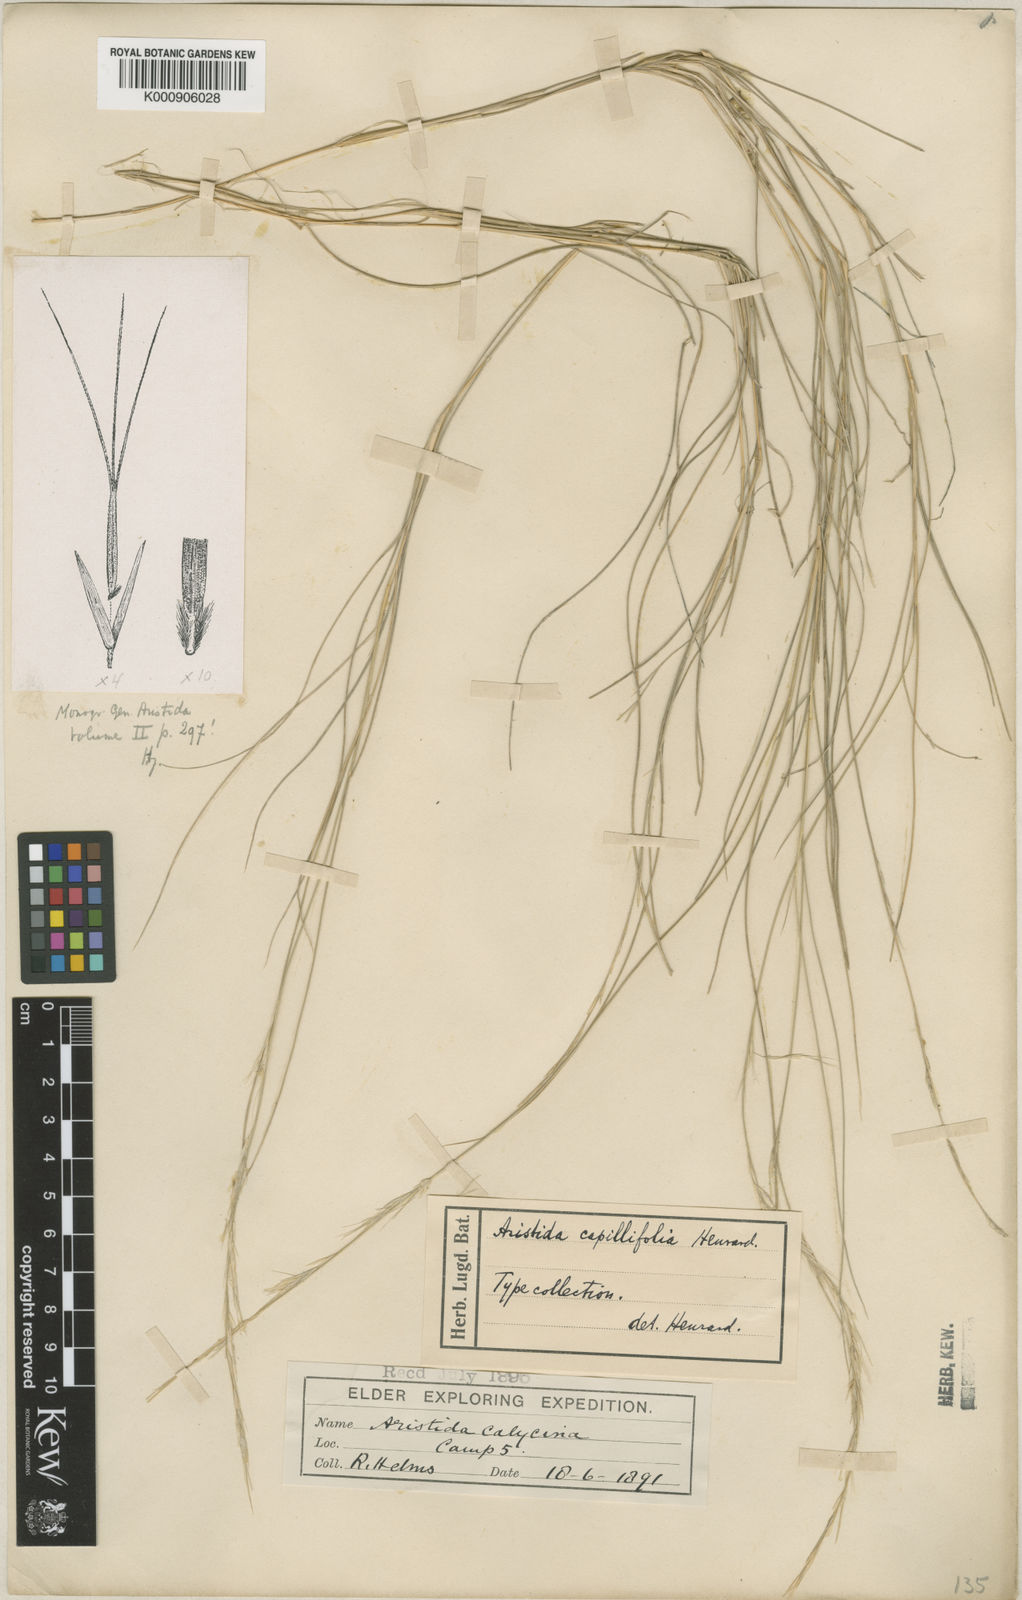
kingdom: Plantae
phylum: Tracheophyta
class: Liliopsida
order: Poales
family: Poaceae
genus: Aristida
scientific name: Aristida capillifolia
